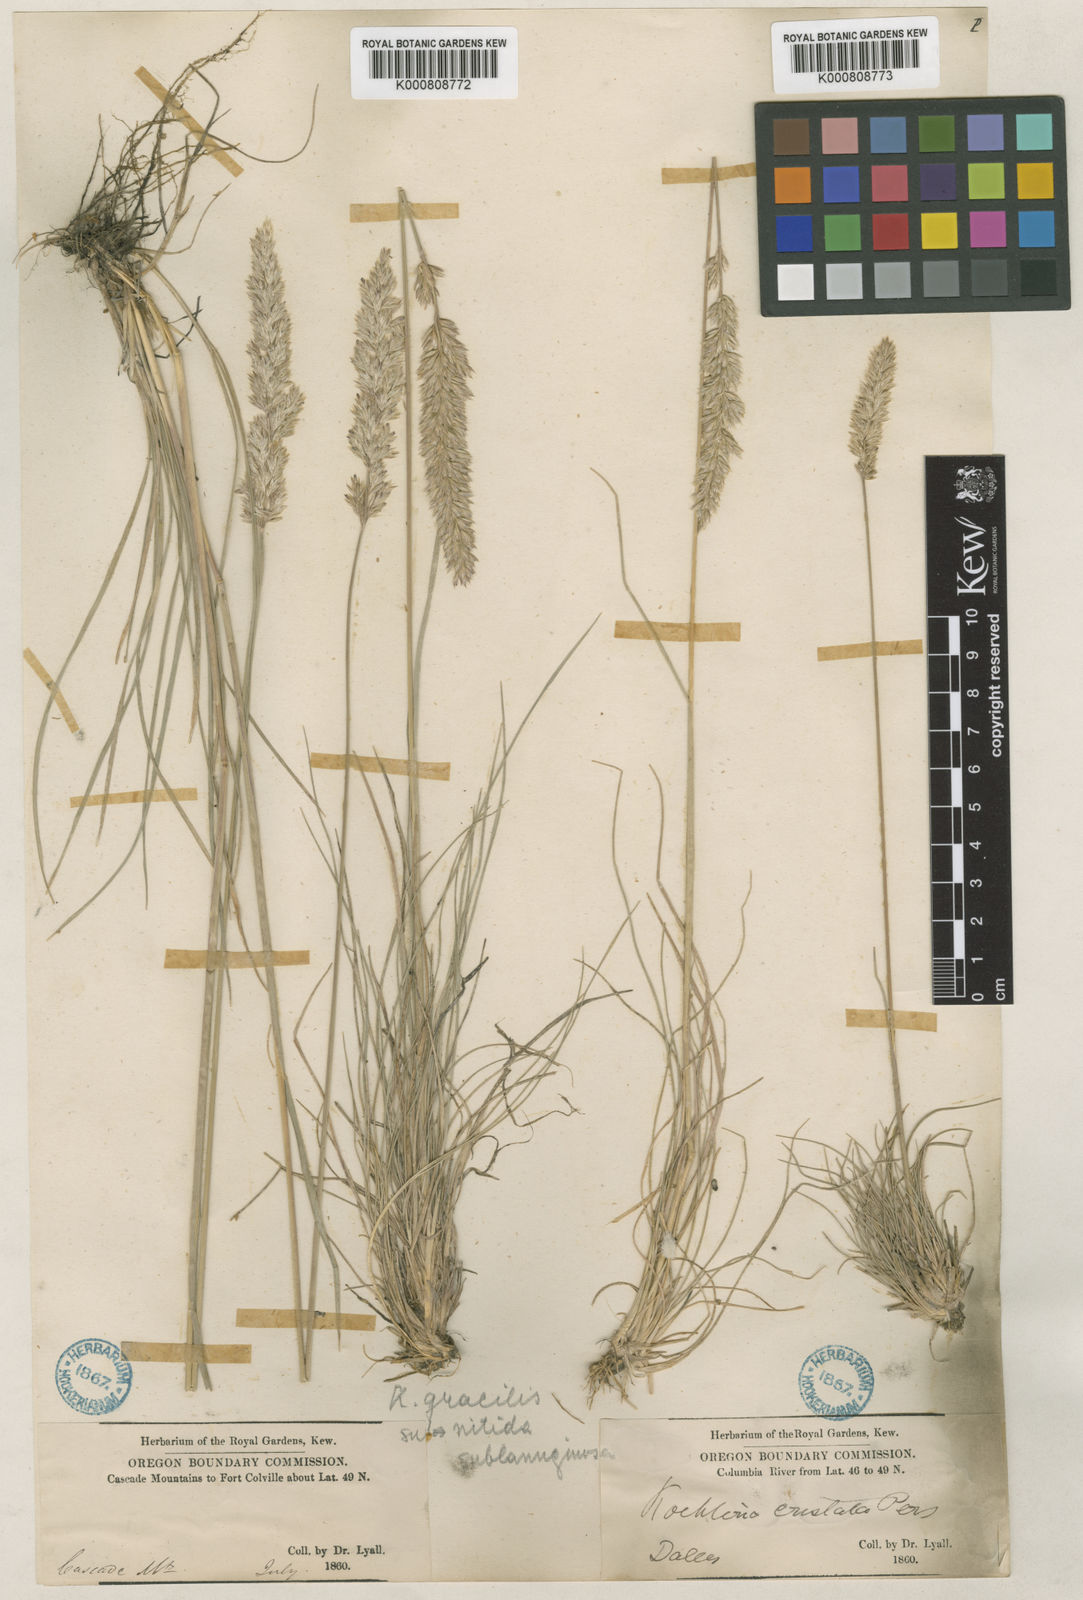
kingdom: Plantae
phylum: Tracheophyta
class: Liliopsida
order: Poales
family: Poaceae
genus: Koeleria
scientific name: Koeleria macrantha
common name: Crested hair-grass
